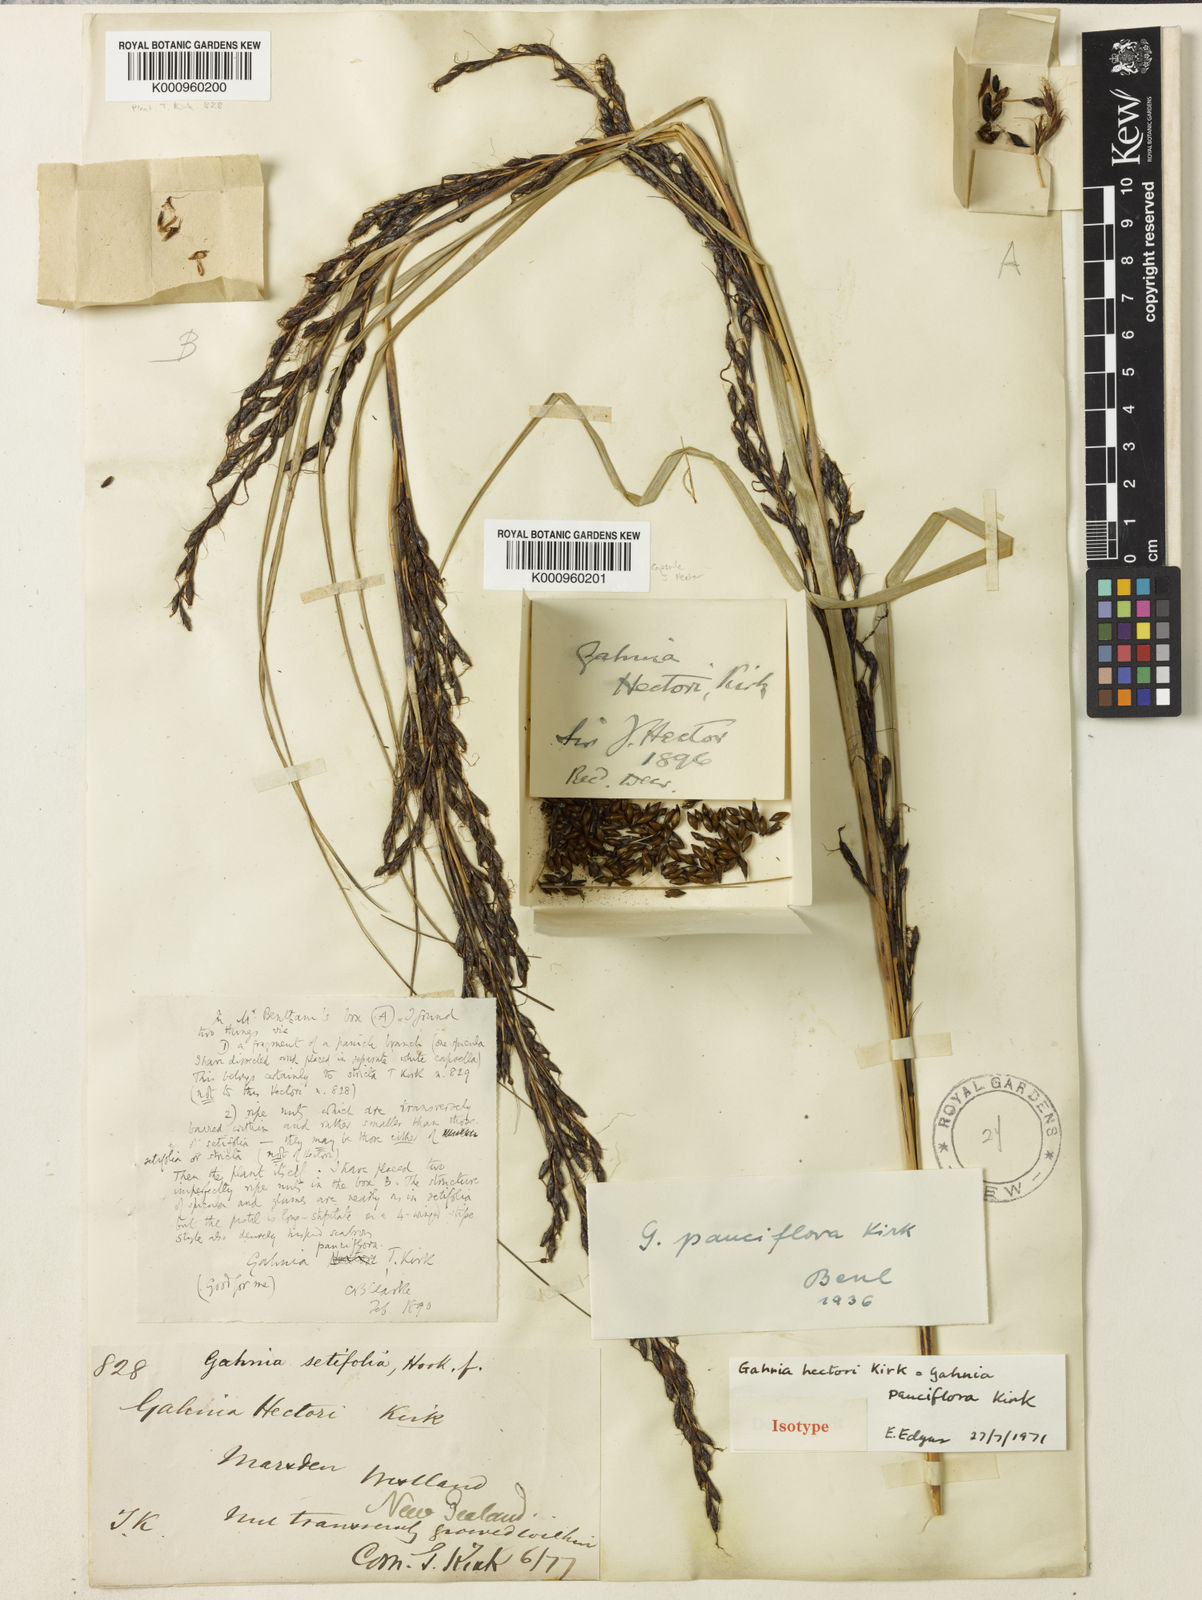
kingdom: Plantae
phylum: Tracheophyta
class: Liliopsida
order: Poales
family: Cyperaceae
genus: Gahnia
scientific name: Gahnia pauciflora
